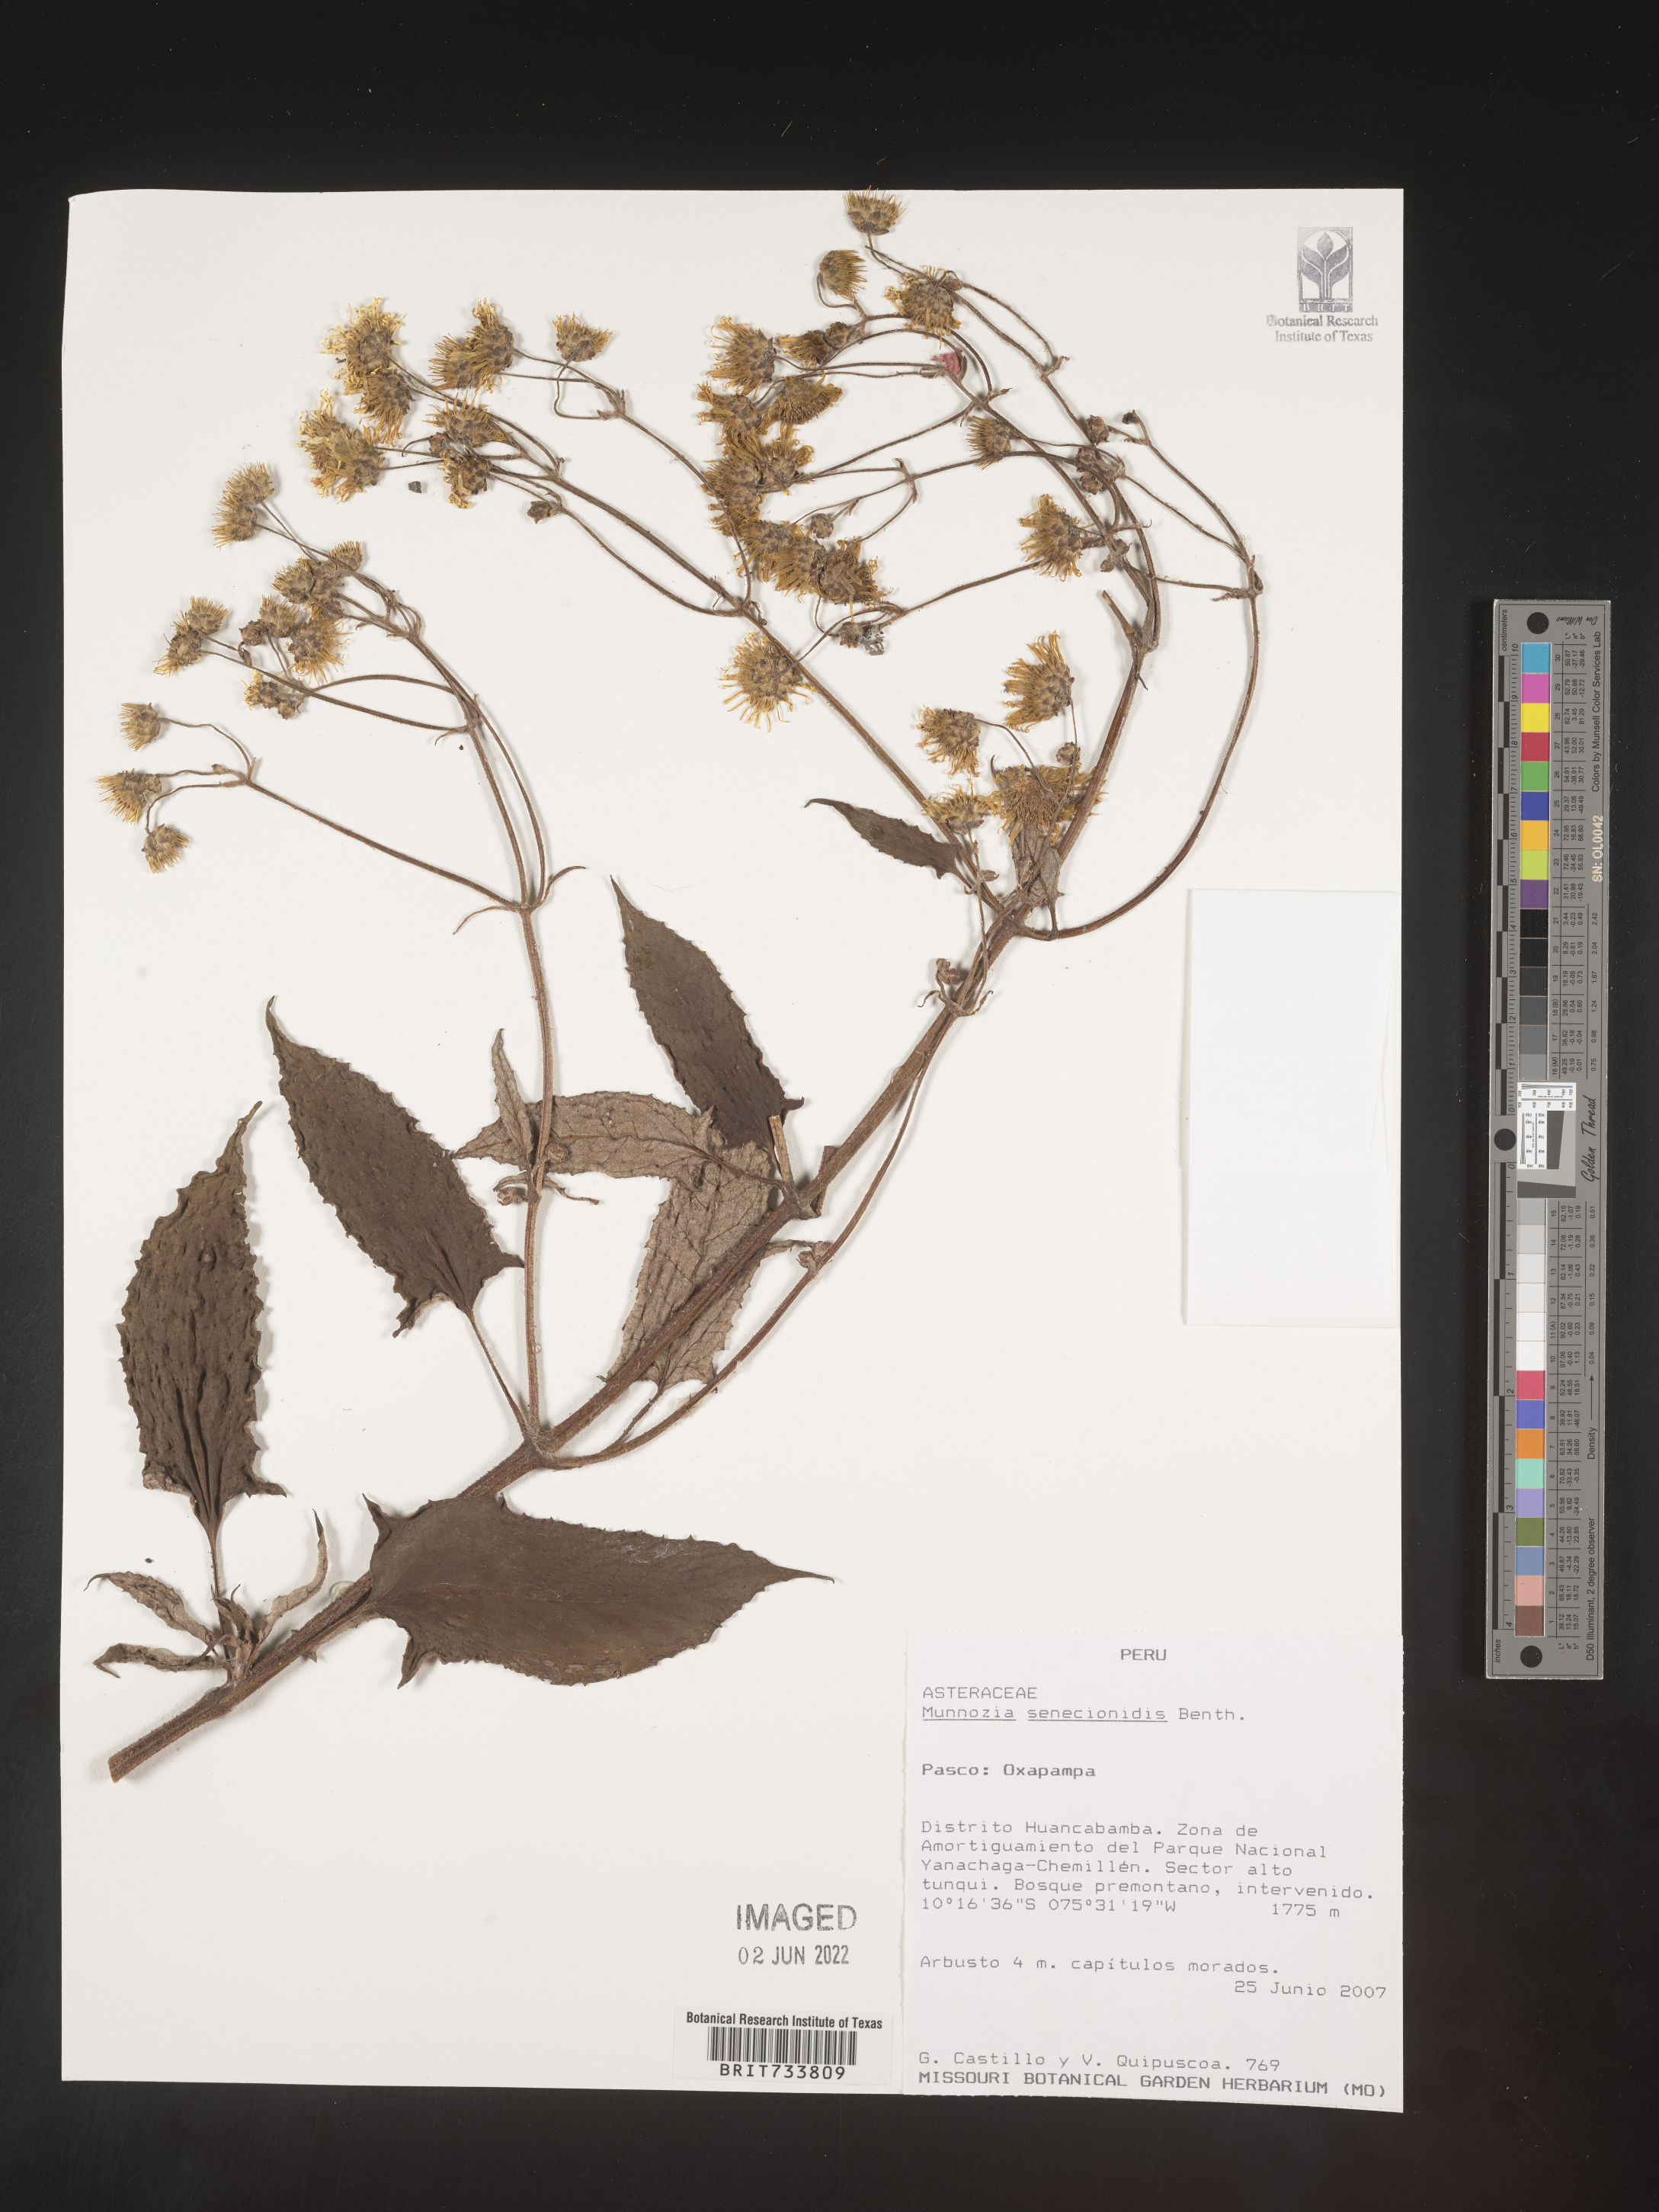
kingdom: Plantae
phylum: Tracheophyta
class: Magnoliopsida
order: Asterales
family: Asteraceae
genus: Munnozia
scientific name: Munnozia
